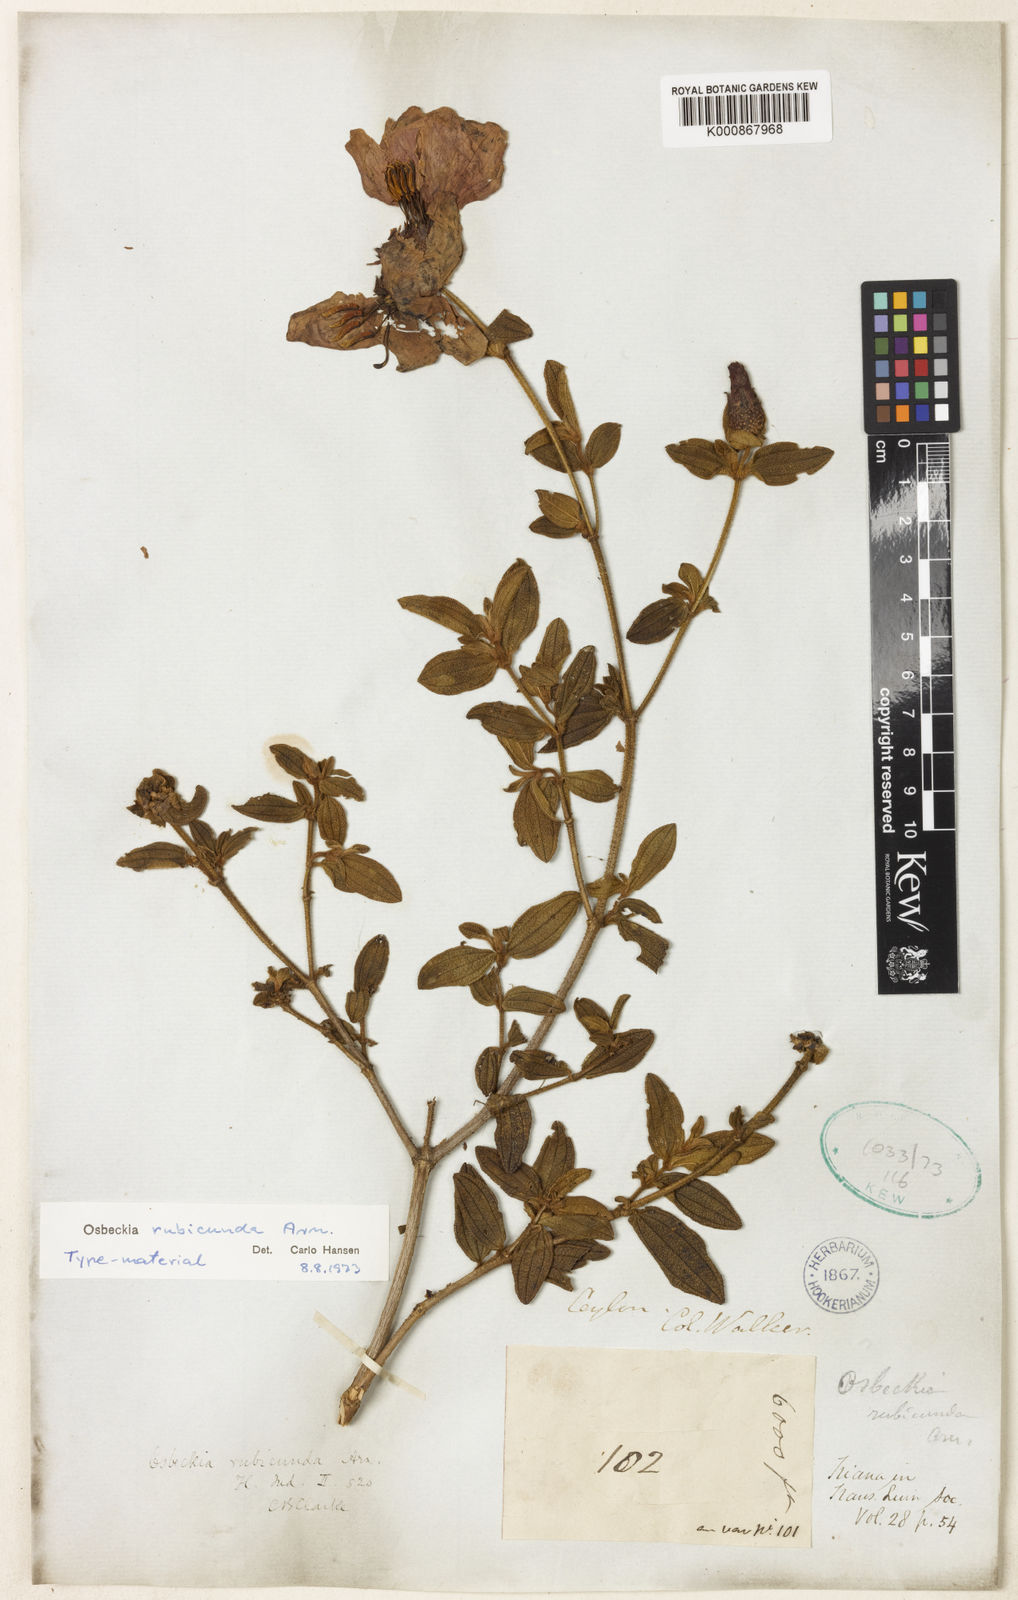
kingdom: Plantae
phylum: Tracheophyta
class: Magnoliopsida
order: Myrtales
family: Melastomataceae
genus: Osbeckia
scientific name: Osbeckia rubicunda
